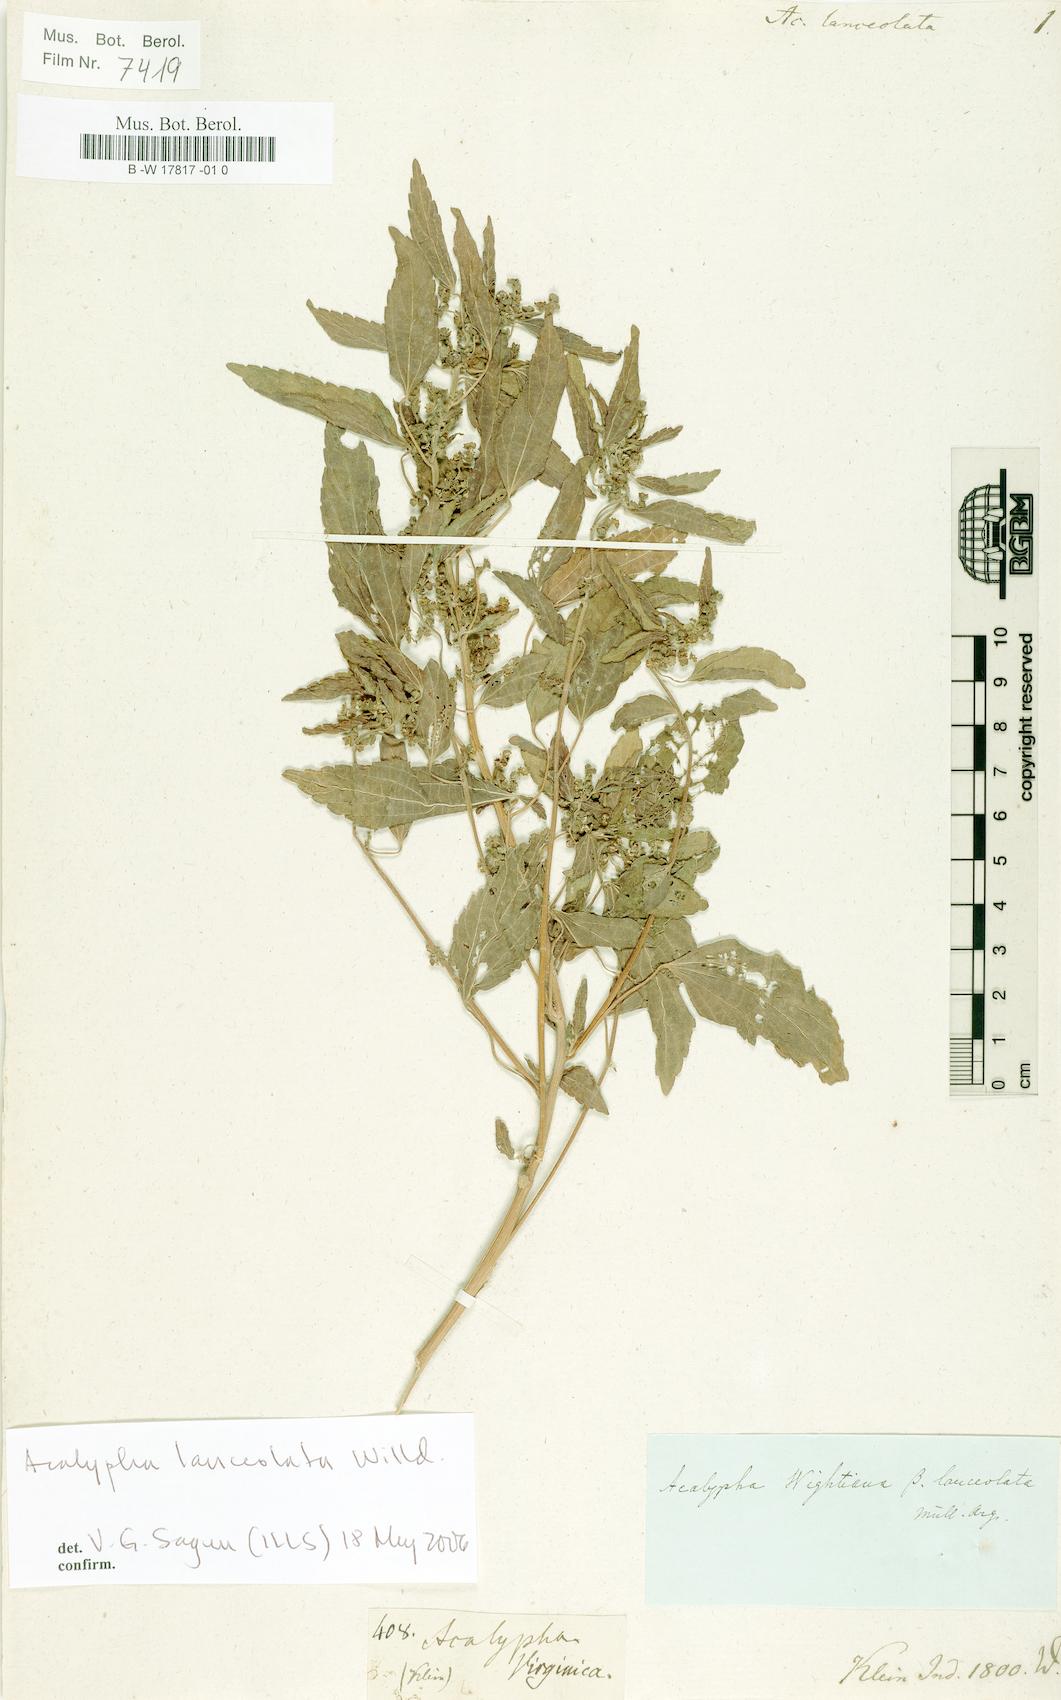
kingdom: Plantae
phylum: Tracheophyta
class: Magnoliopsida
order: Malpighiales
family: Euphorbiaceae
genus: Acalypha
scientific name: Acalypha lanceolata
